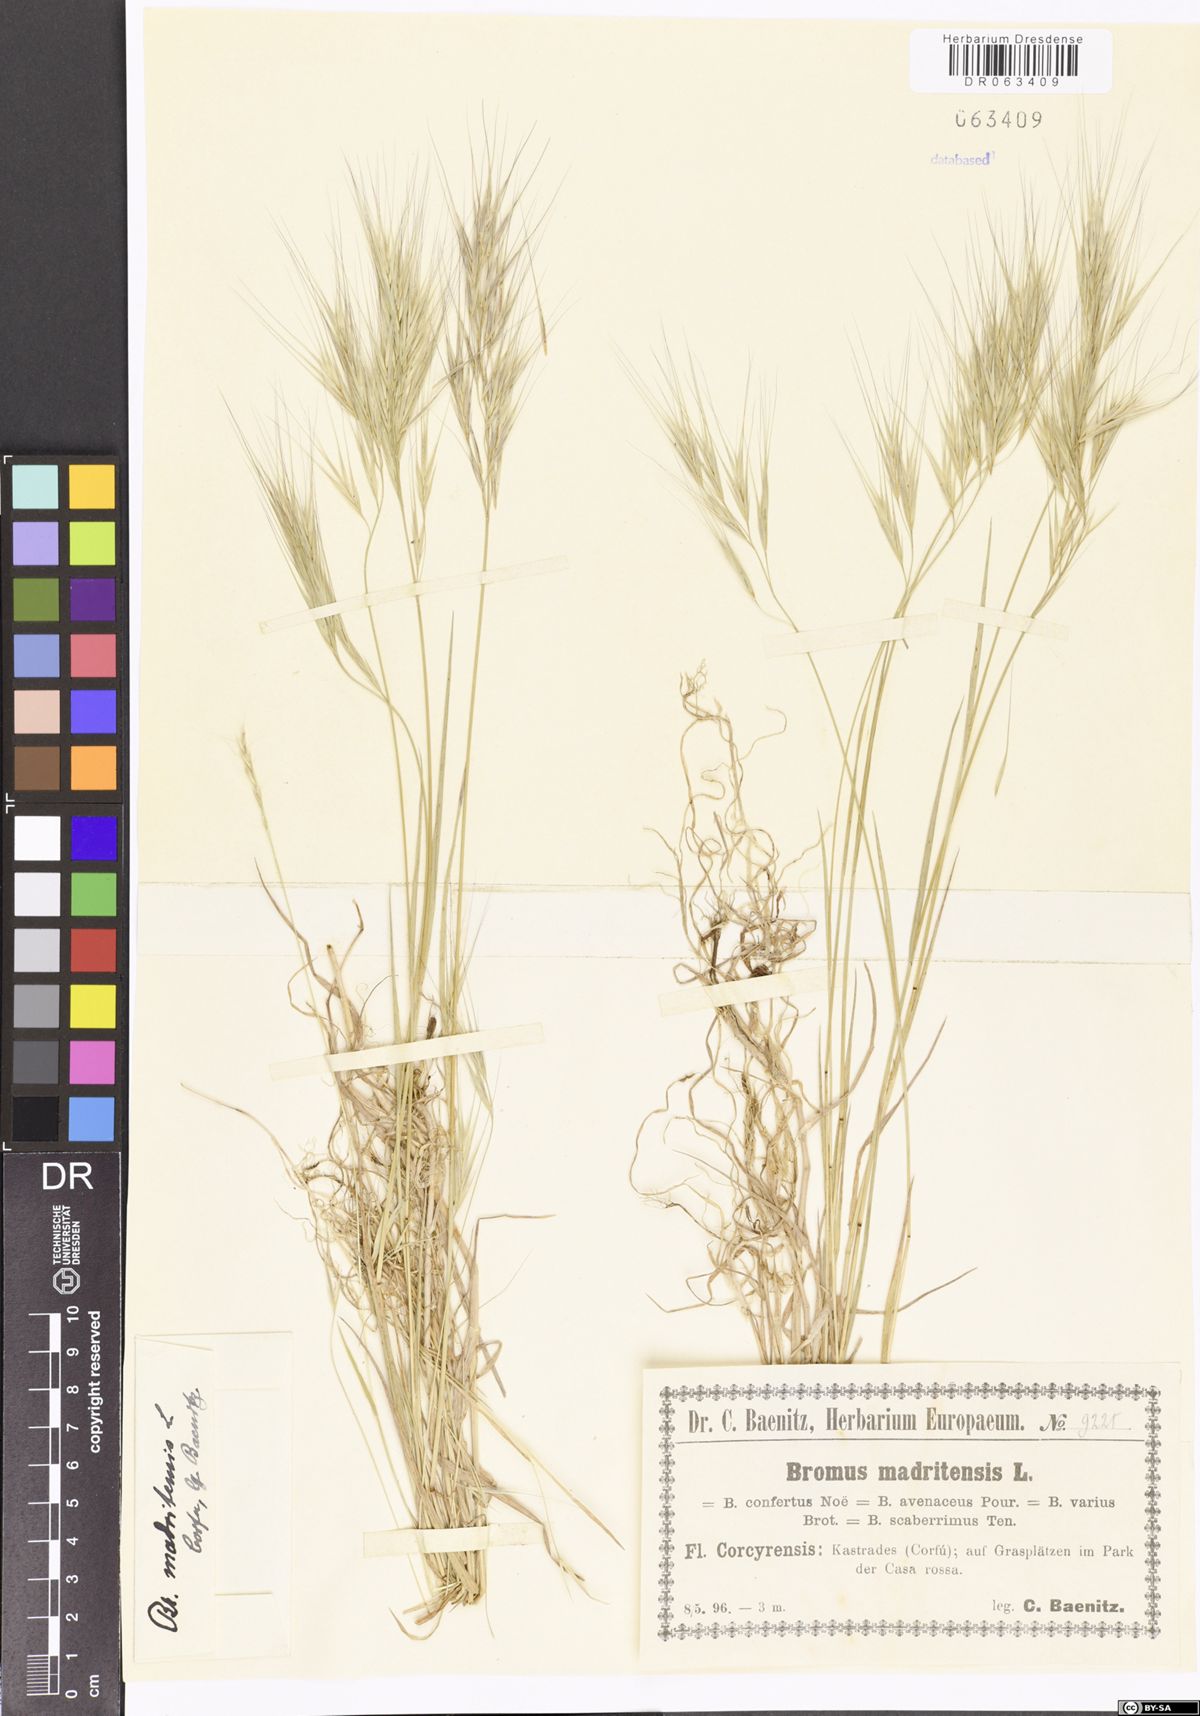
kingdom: Plantae
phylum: Tracheophyta
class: Liliopsida
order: Poales
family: Poaceae
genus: Bromus
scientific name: Bromus madritensis
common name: Compact brome
